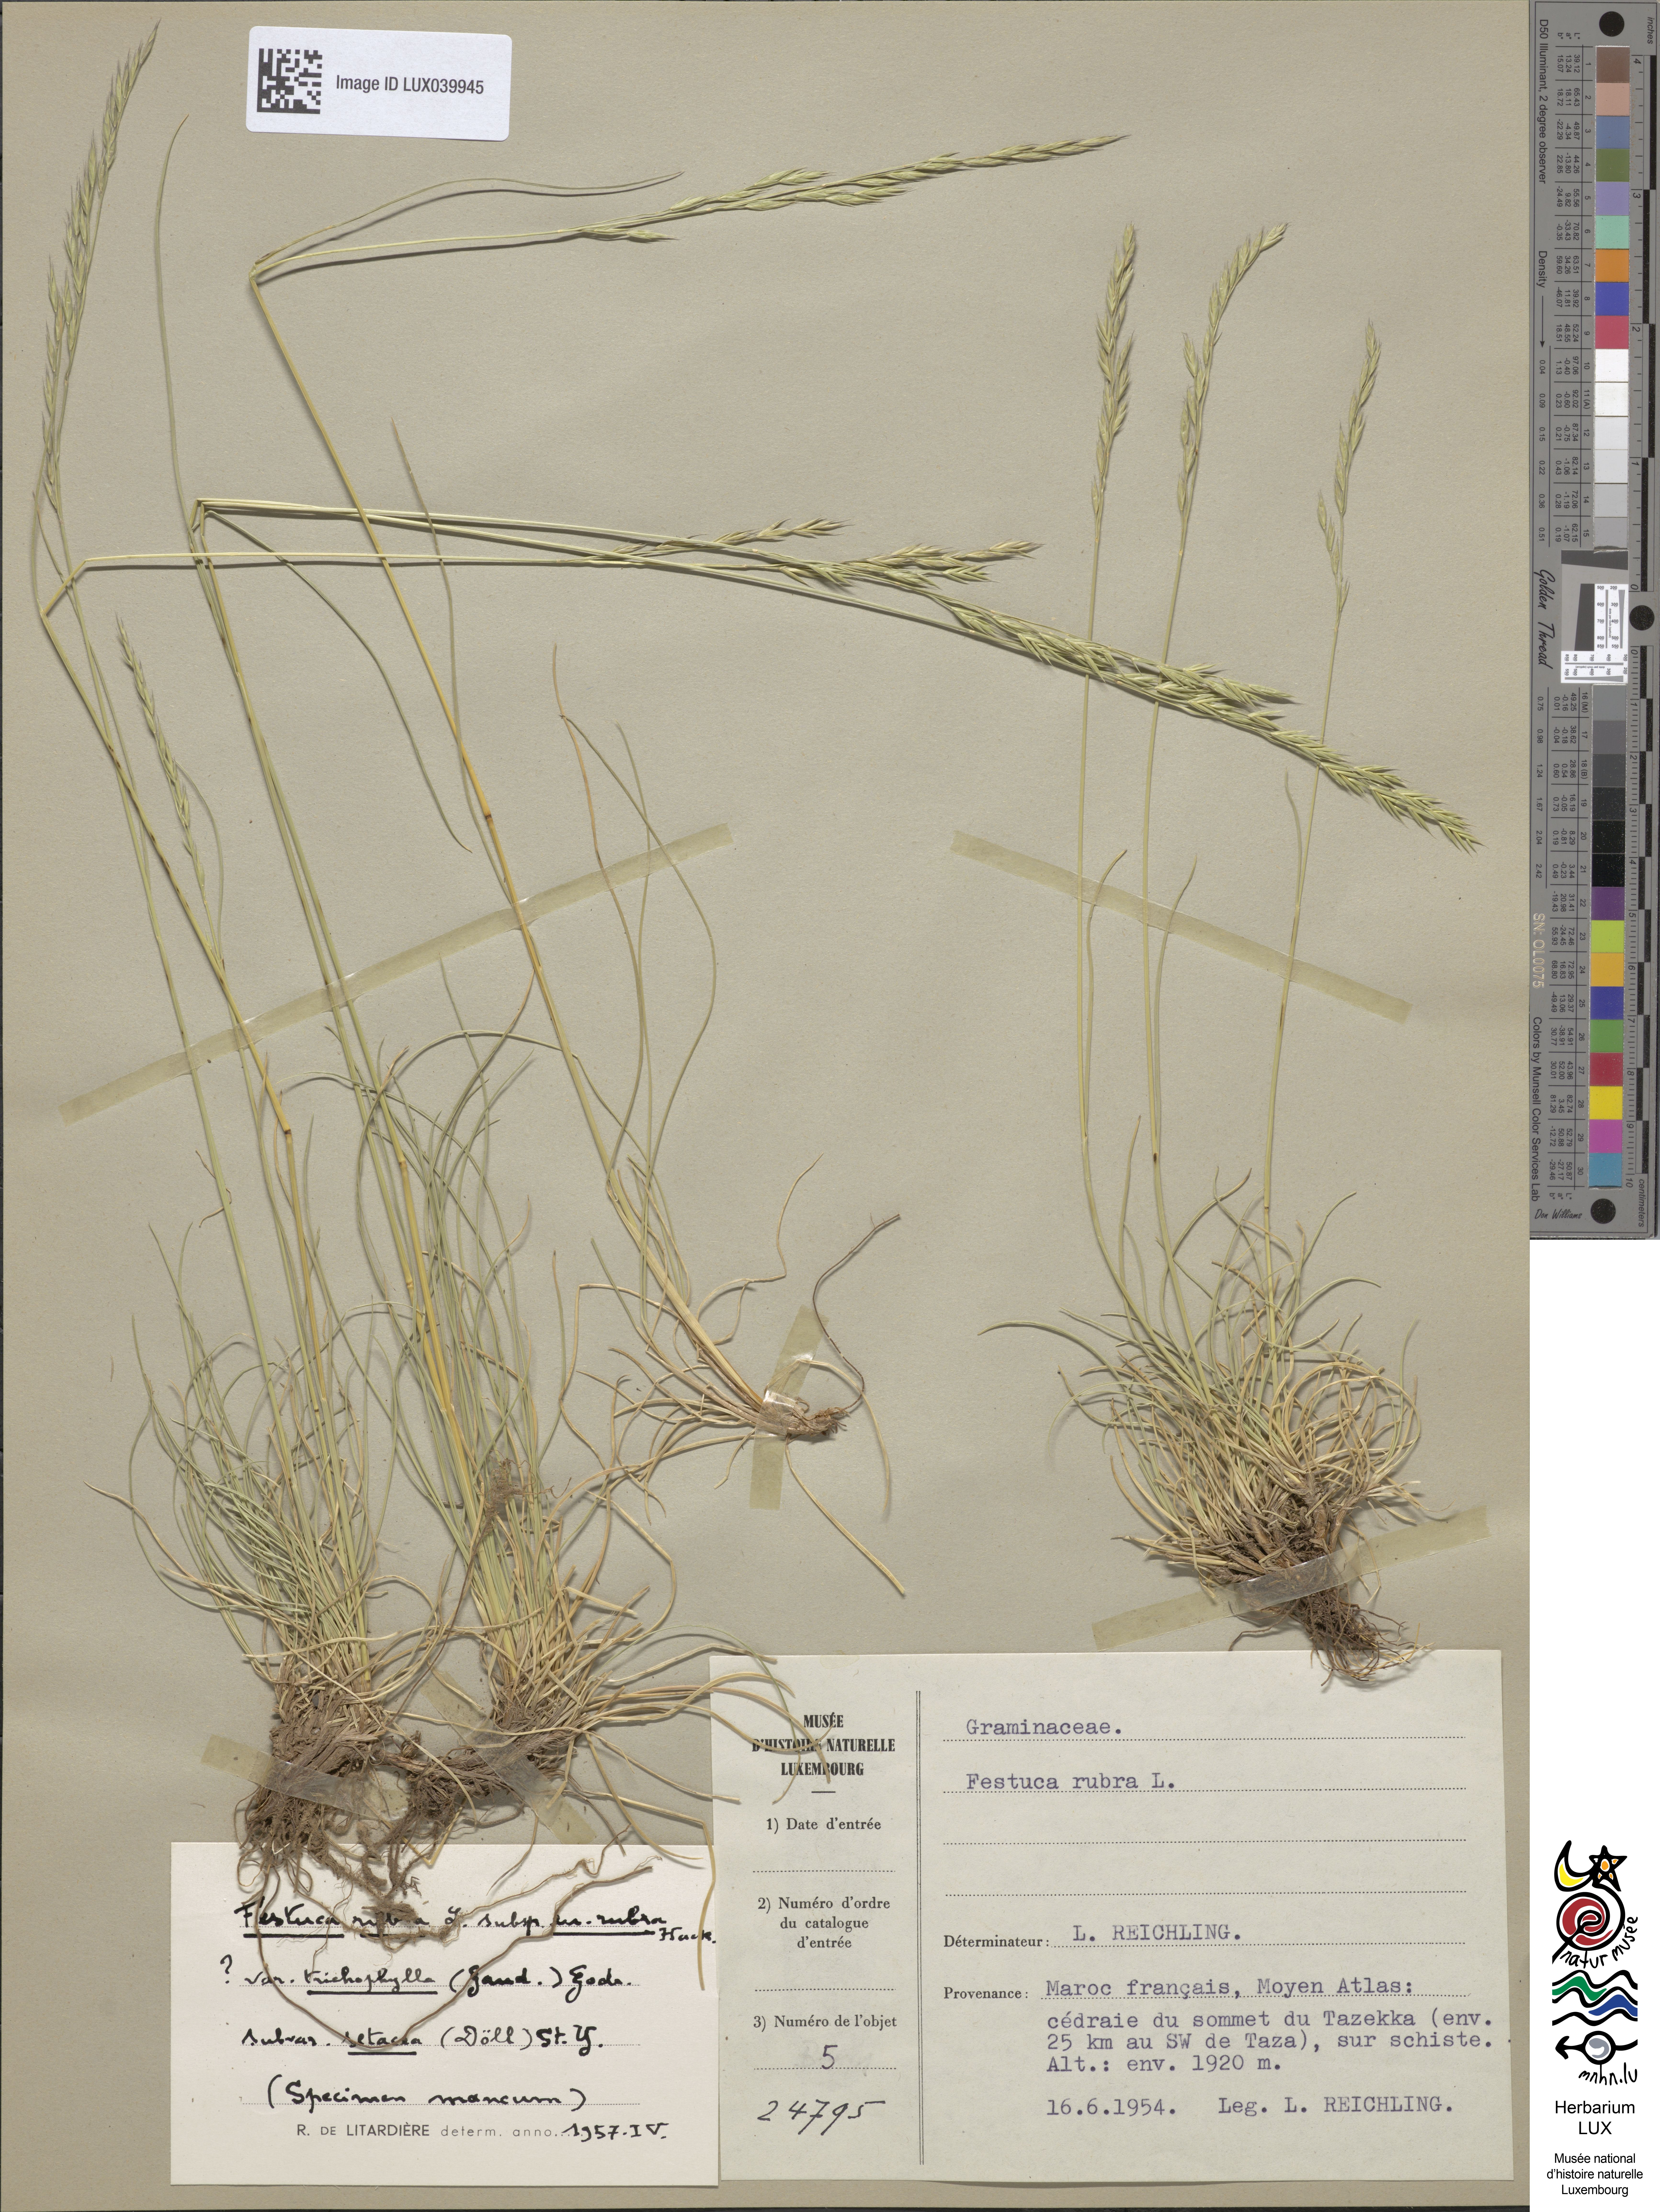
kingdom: Plantae
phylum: Tracheophyta
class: Liliopsida
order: Poales
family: Poaceae
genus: Festuca
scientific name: Festuca rubra
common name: Red fescue
